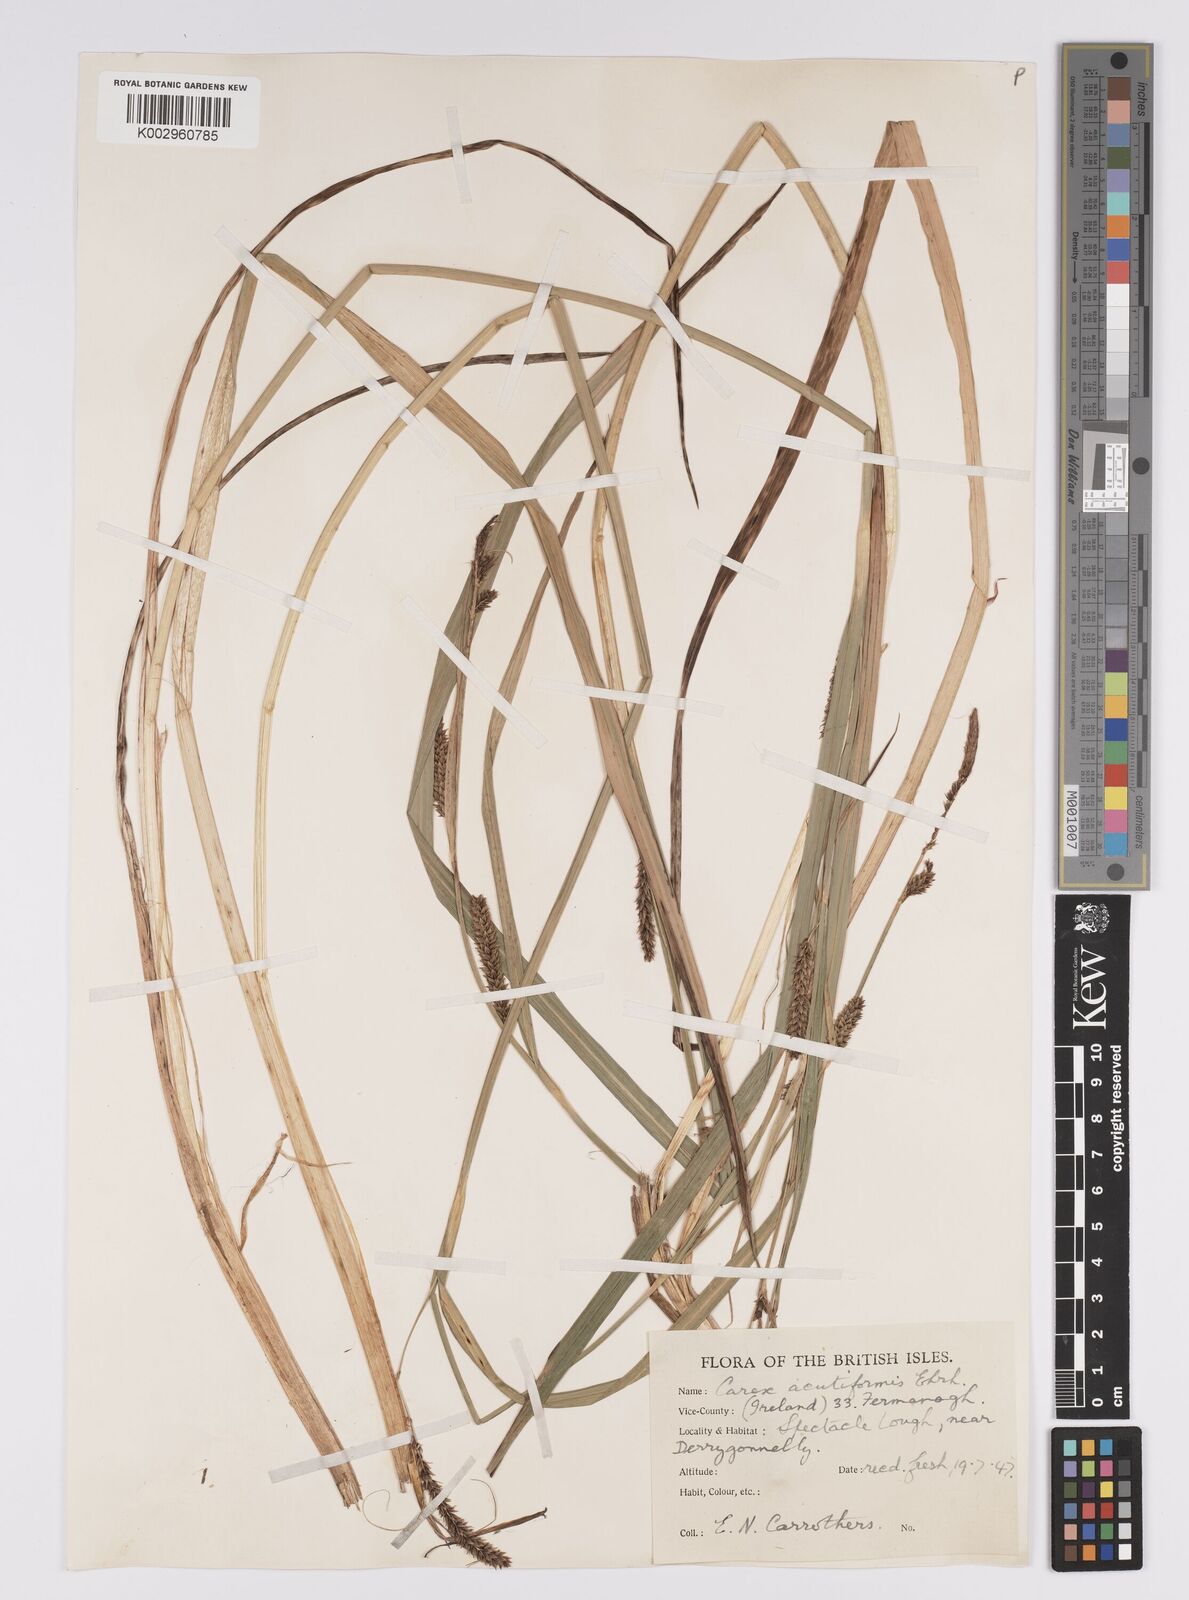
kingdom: Plantae
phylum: Tracheophyta
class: Liliopsida
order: Poales
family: Cyperaceae
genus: Carex
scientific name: Carex acutiformis
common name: Lesser pond-sedge
